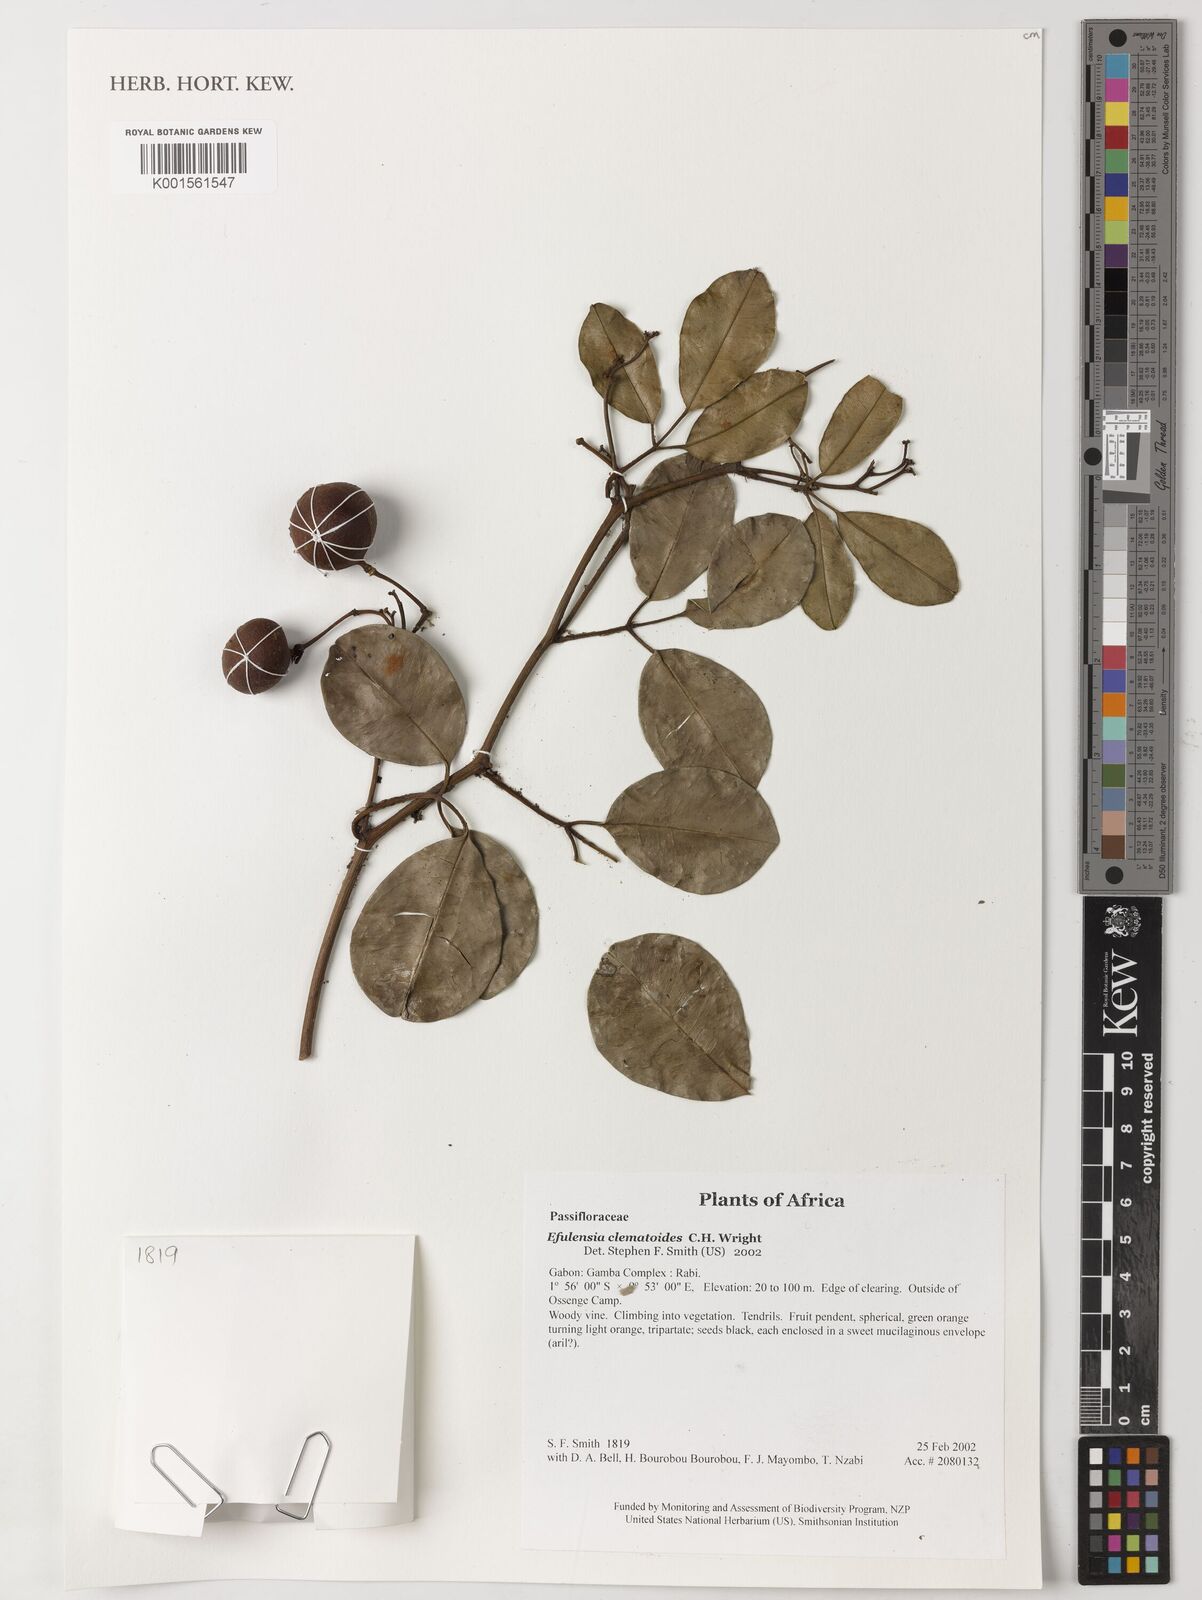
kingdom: Plantae
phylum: Tracheophyta
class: Magnoliopsida
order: Malpighiales
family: Passifloraceae
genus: Efulensia
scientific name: Efulensia clematoides
